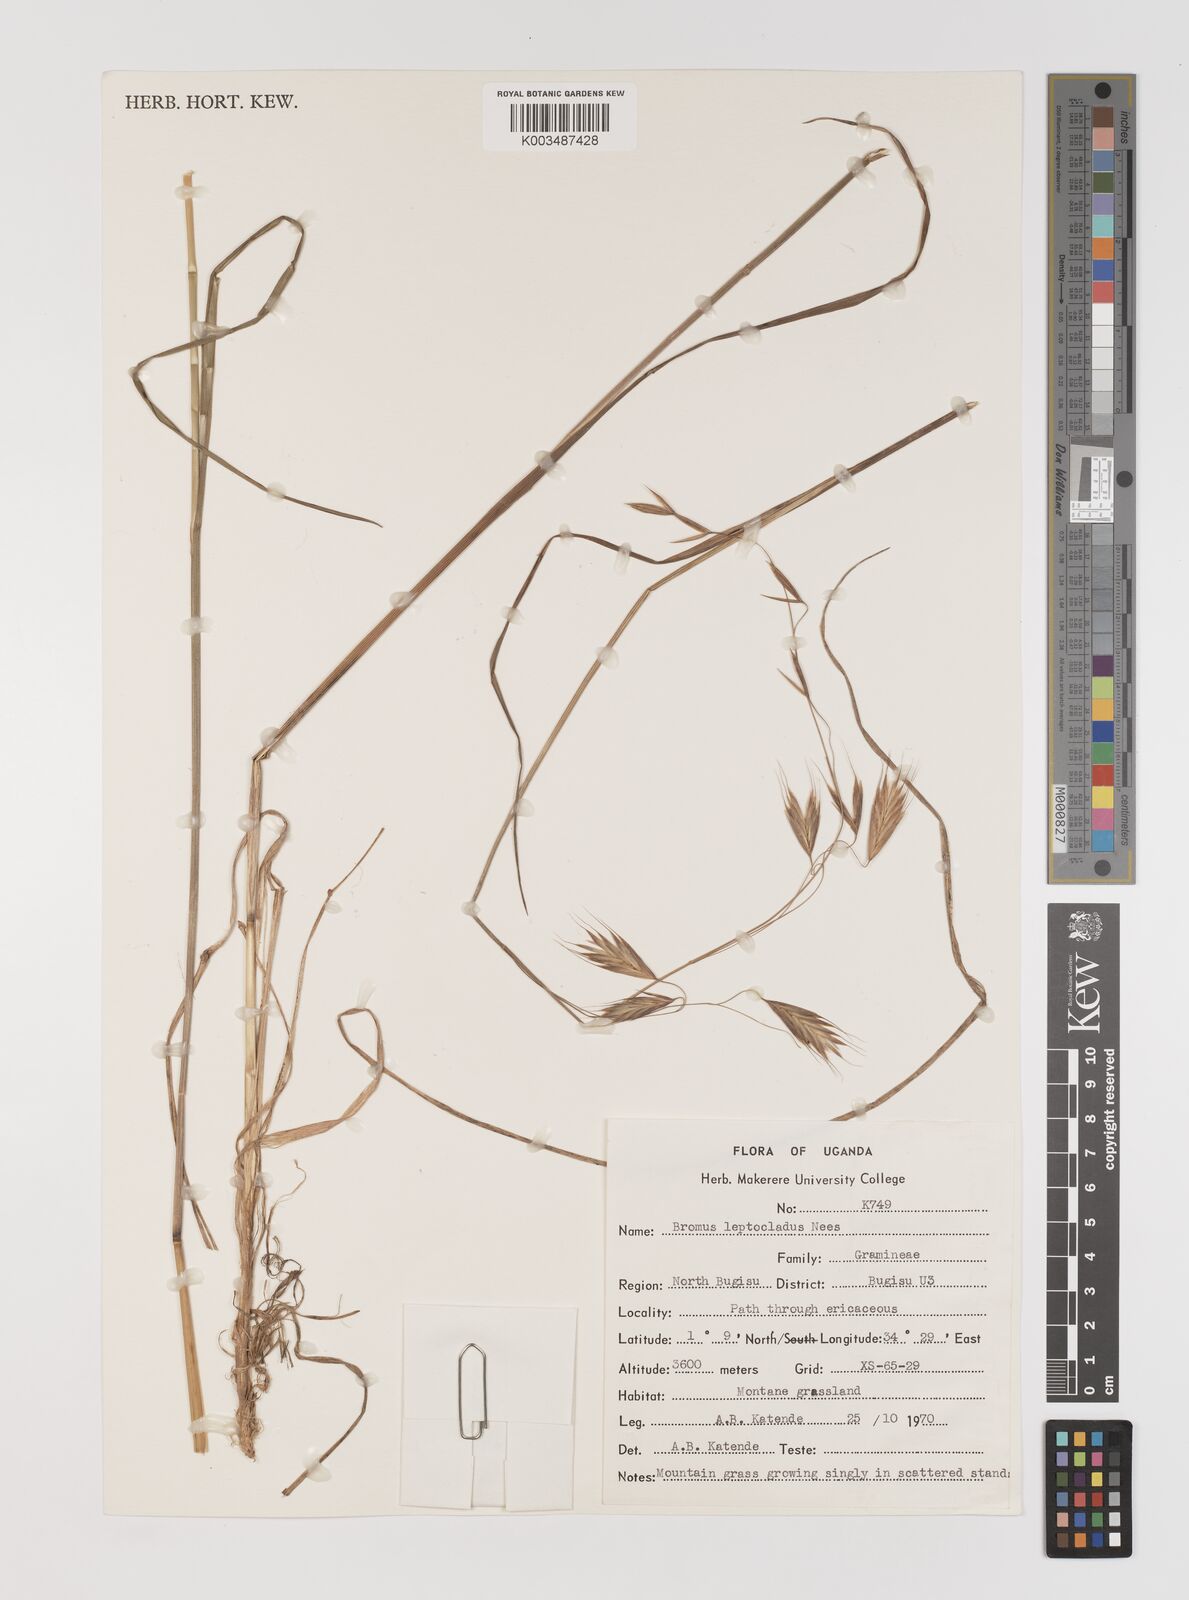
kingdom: Plantae
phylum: Tracheophyta
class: Liliopsida
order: Poales
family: Poaceae
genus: Bromus
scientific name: Bromus leptoclados
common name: Mountain bromegrass
